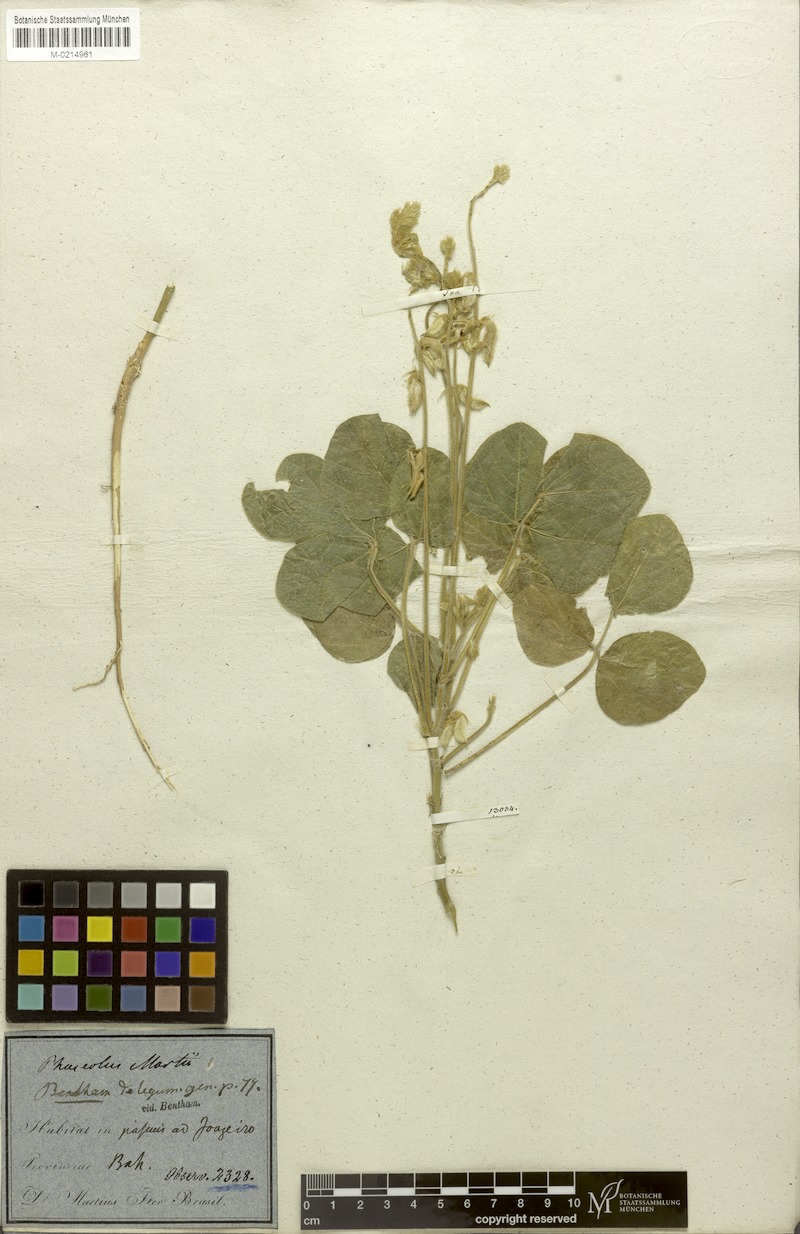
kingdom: Plantae
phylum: Tracheophyta
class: Magnoliopsida
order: Fabales
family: Fabaceae
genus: Macroptilium
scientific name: Macroptilium martii
